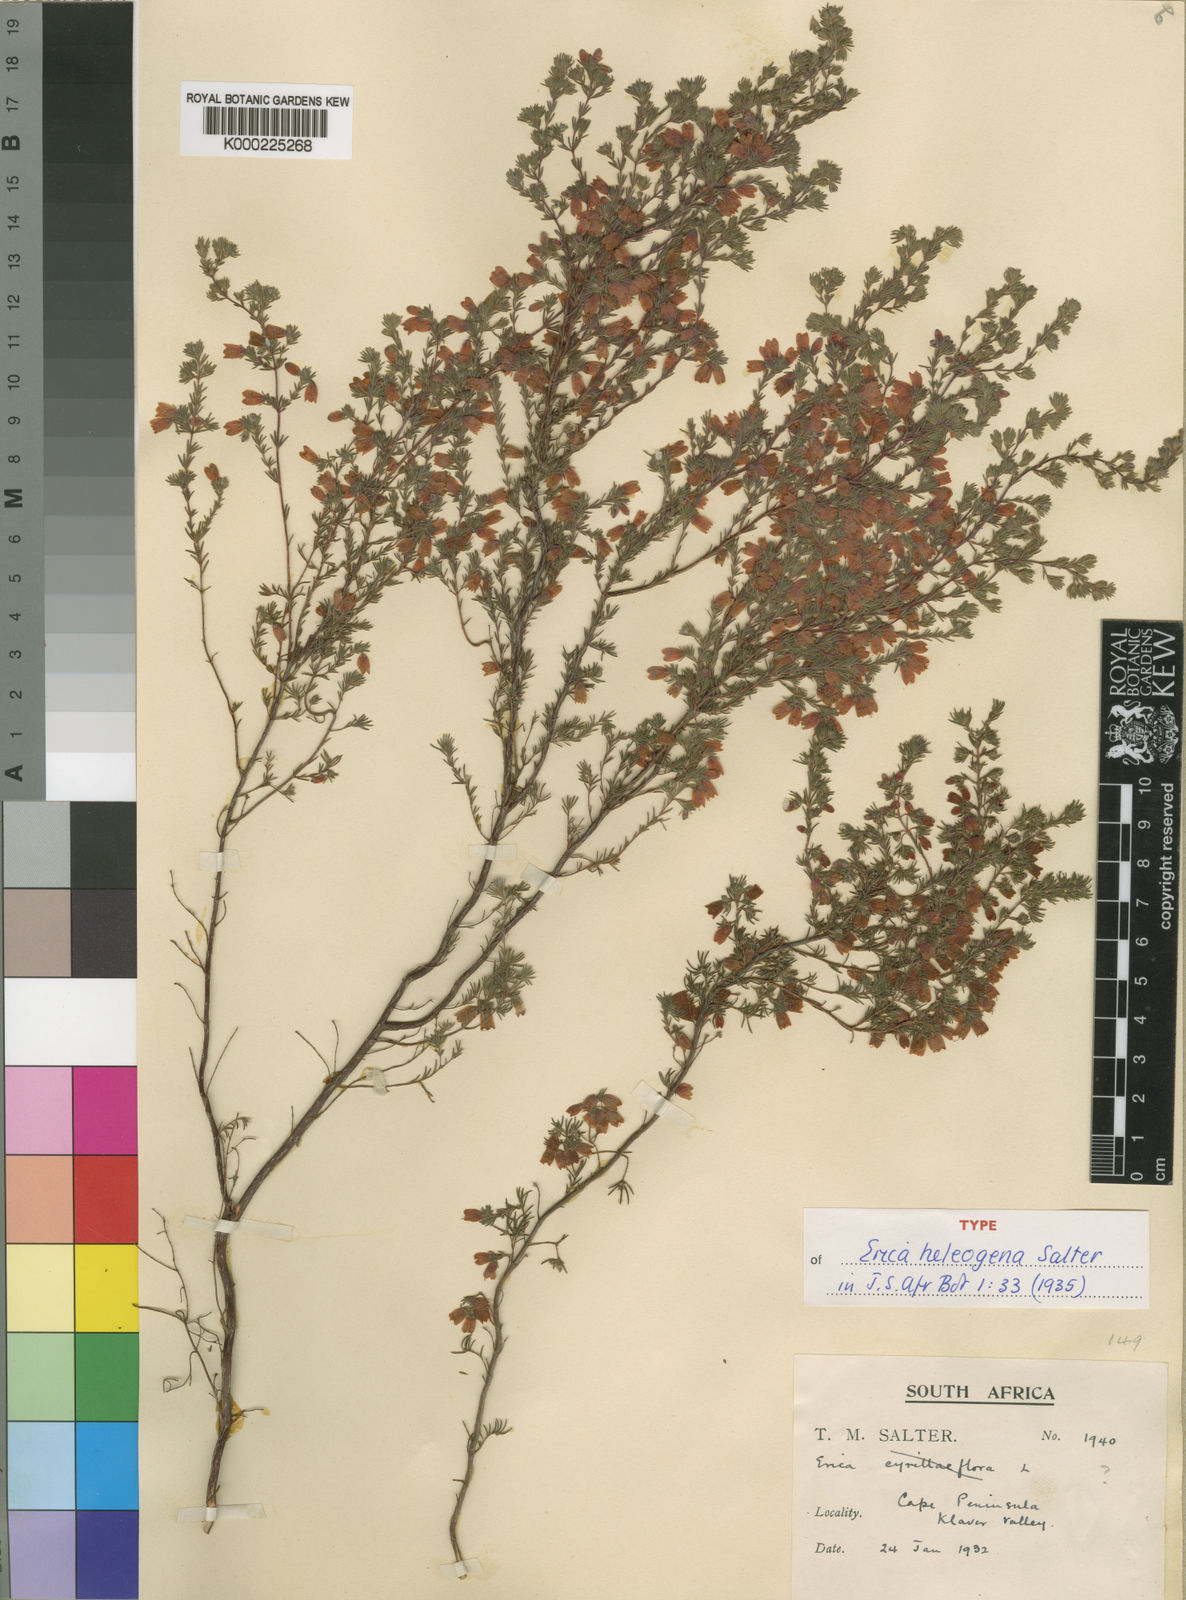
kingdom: Plantae
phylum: Tracheophyta
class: Magnoliopsida
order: Ericales
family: Ericaceae
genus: Erica
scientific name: Erica heleogena
